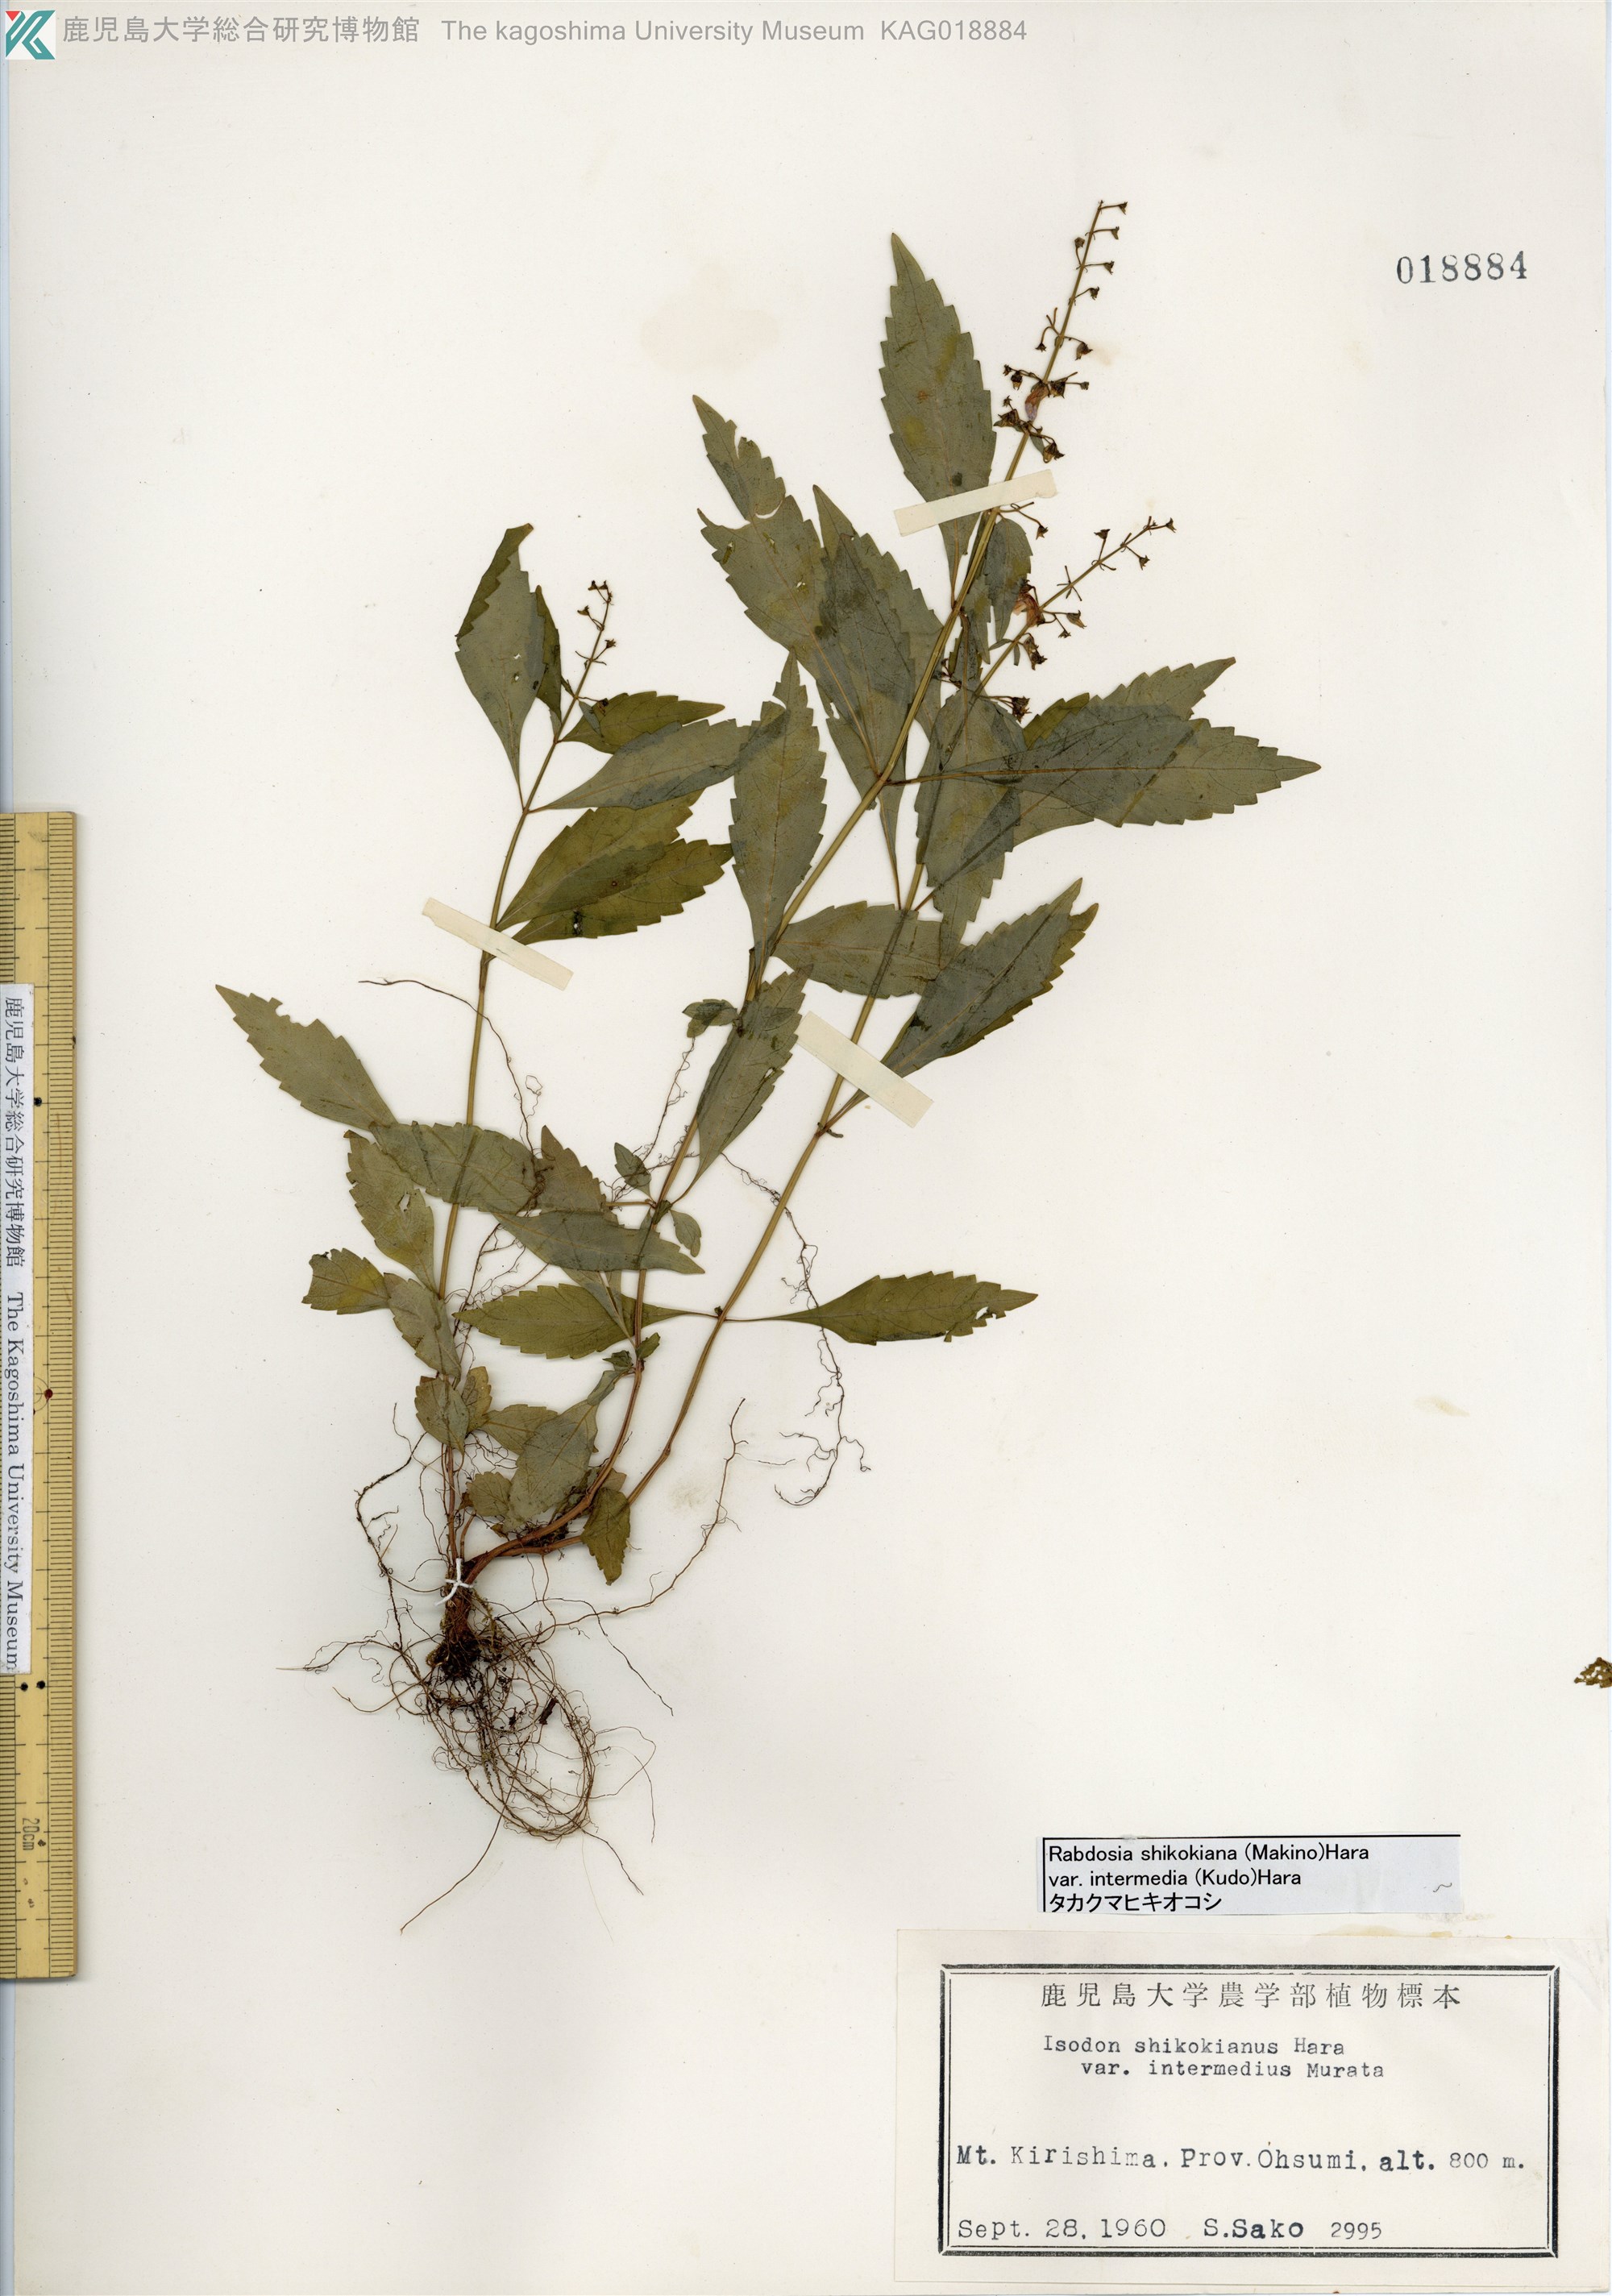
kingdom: Plantae
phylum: Tracheophyta
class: Magnoliopsida
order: Lamiales
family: Lamiaceae
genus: Isodon
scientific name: Isodon shikokianus
